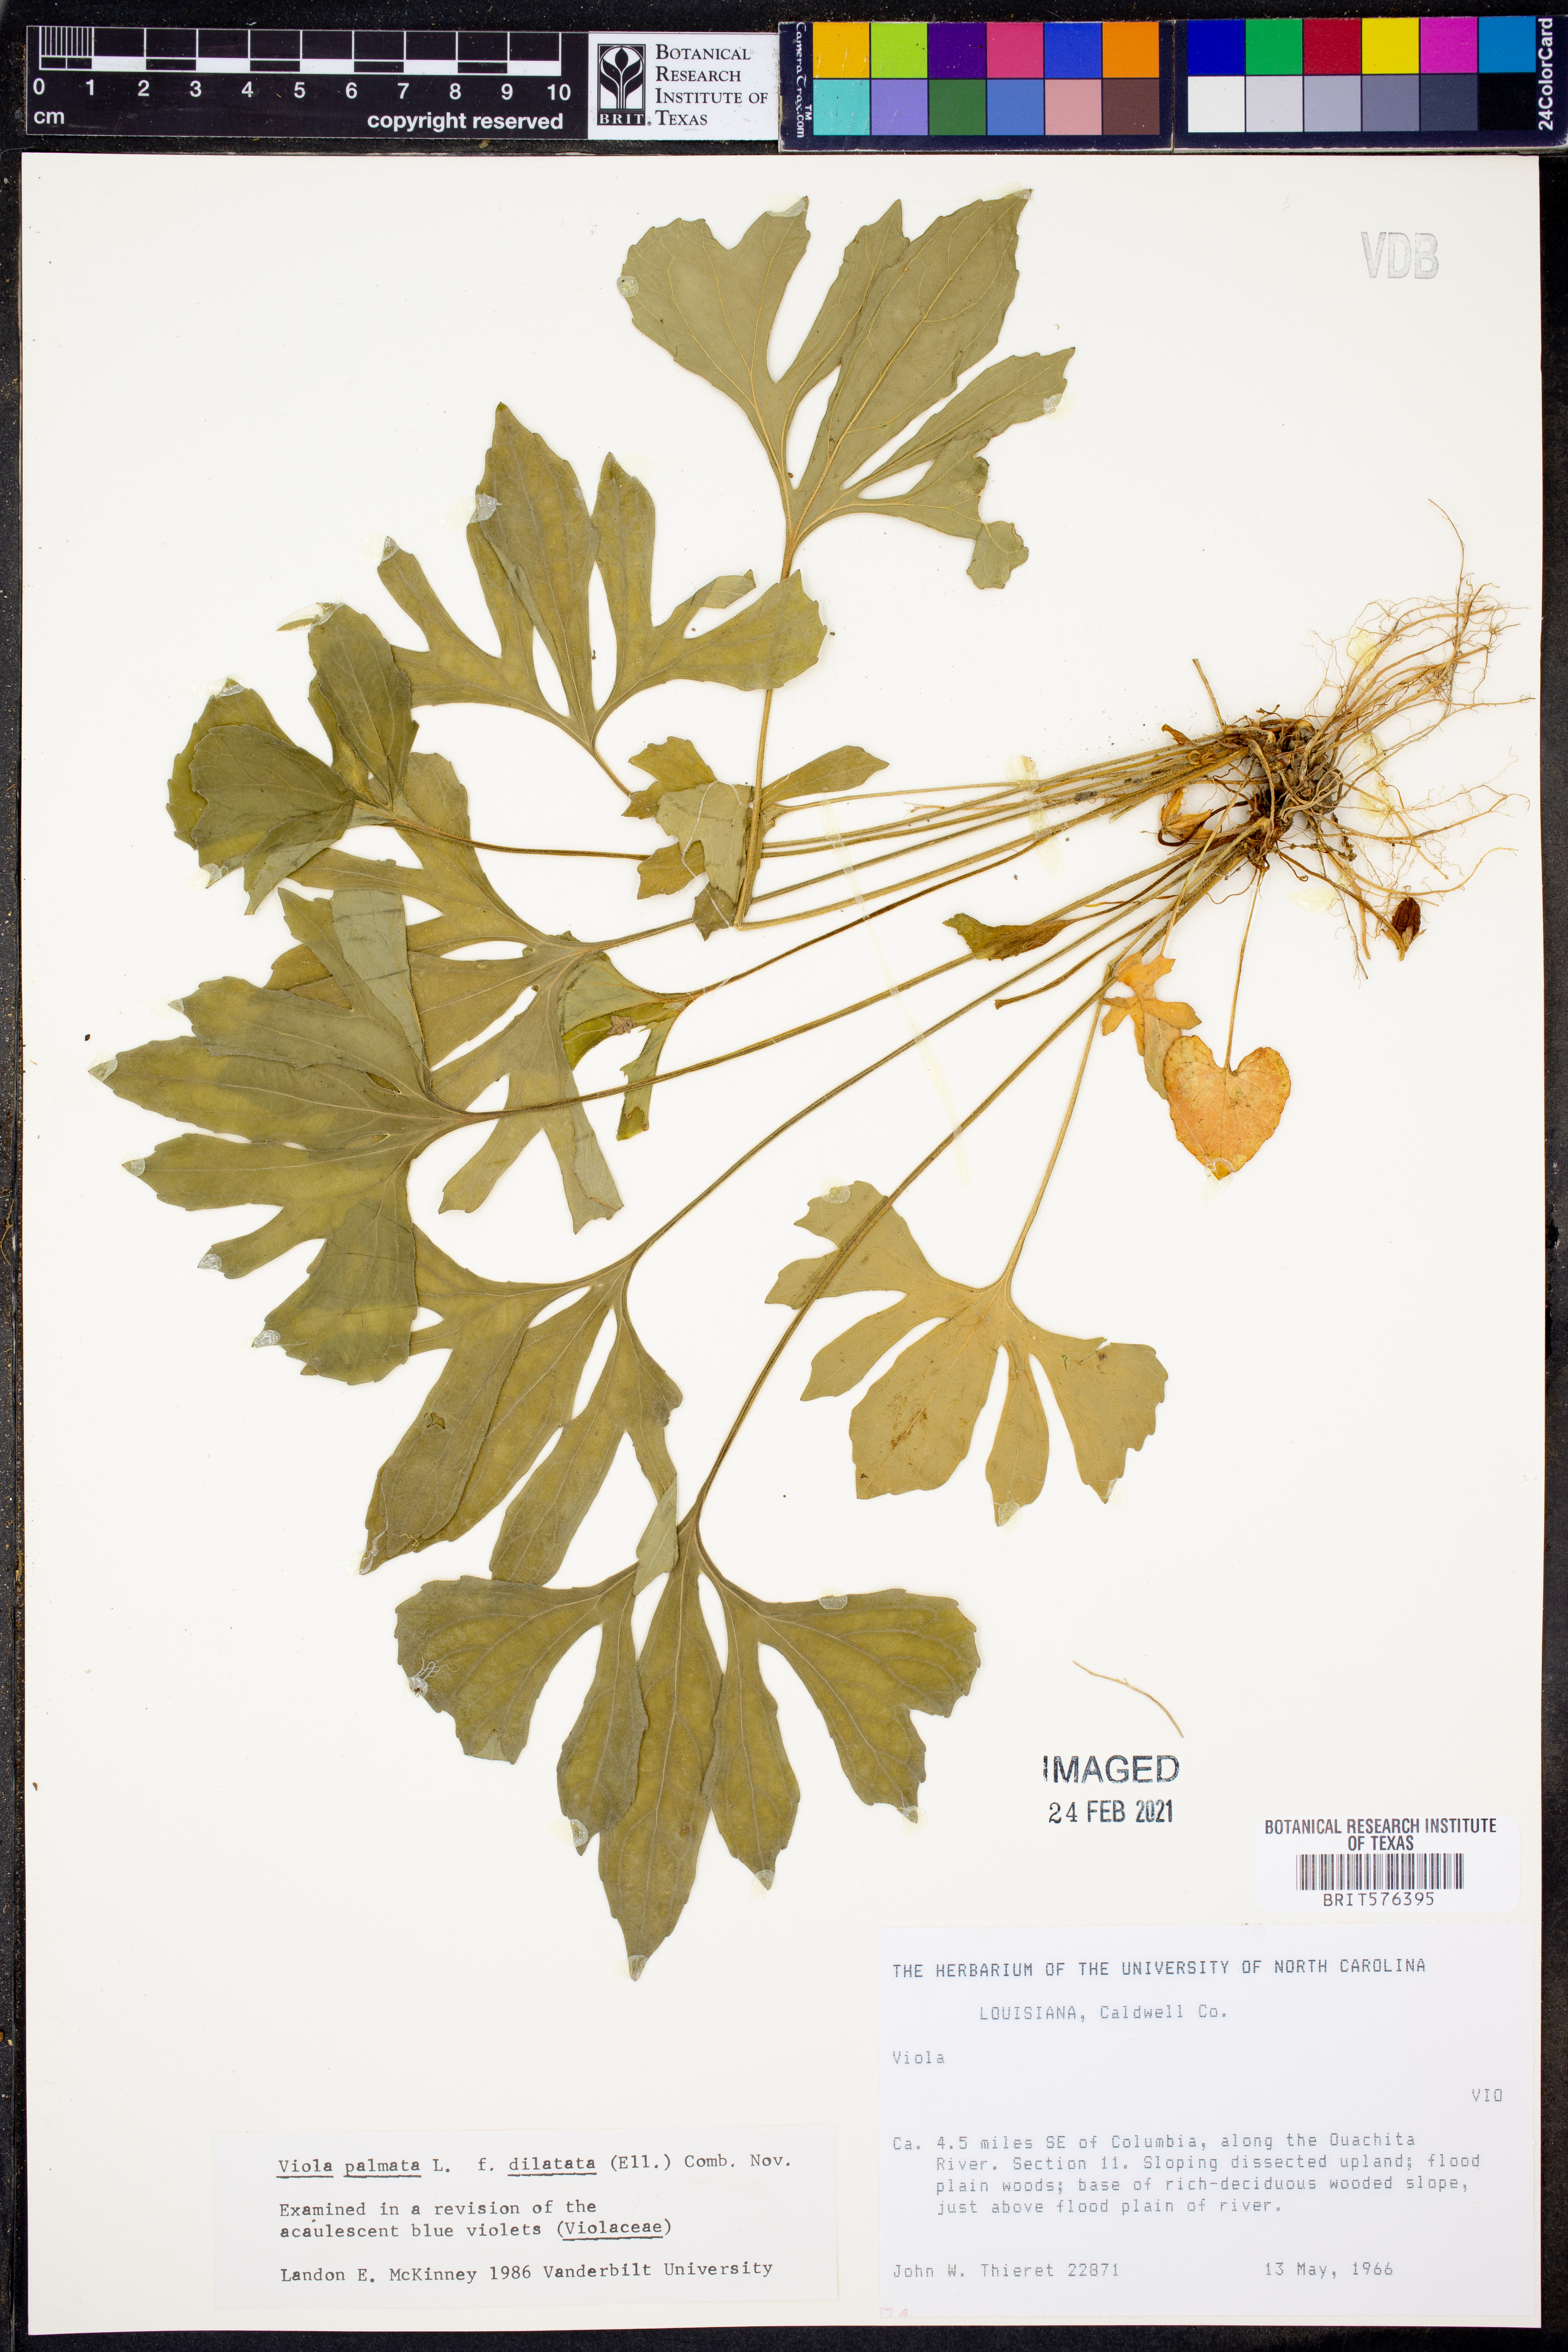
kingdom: Plantae
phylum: Tracheophyta
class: Magnoliopsida
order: Malpighiales
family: Violaceae
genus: Viola
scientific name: Viola palmata
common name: Early blue violet
